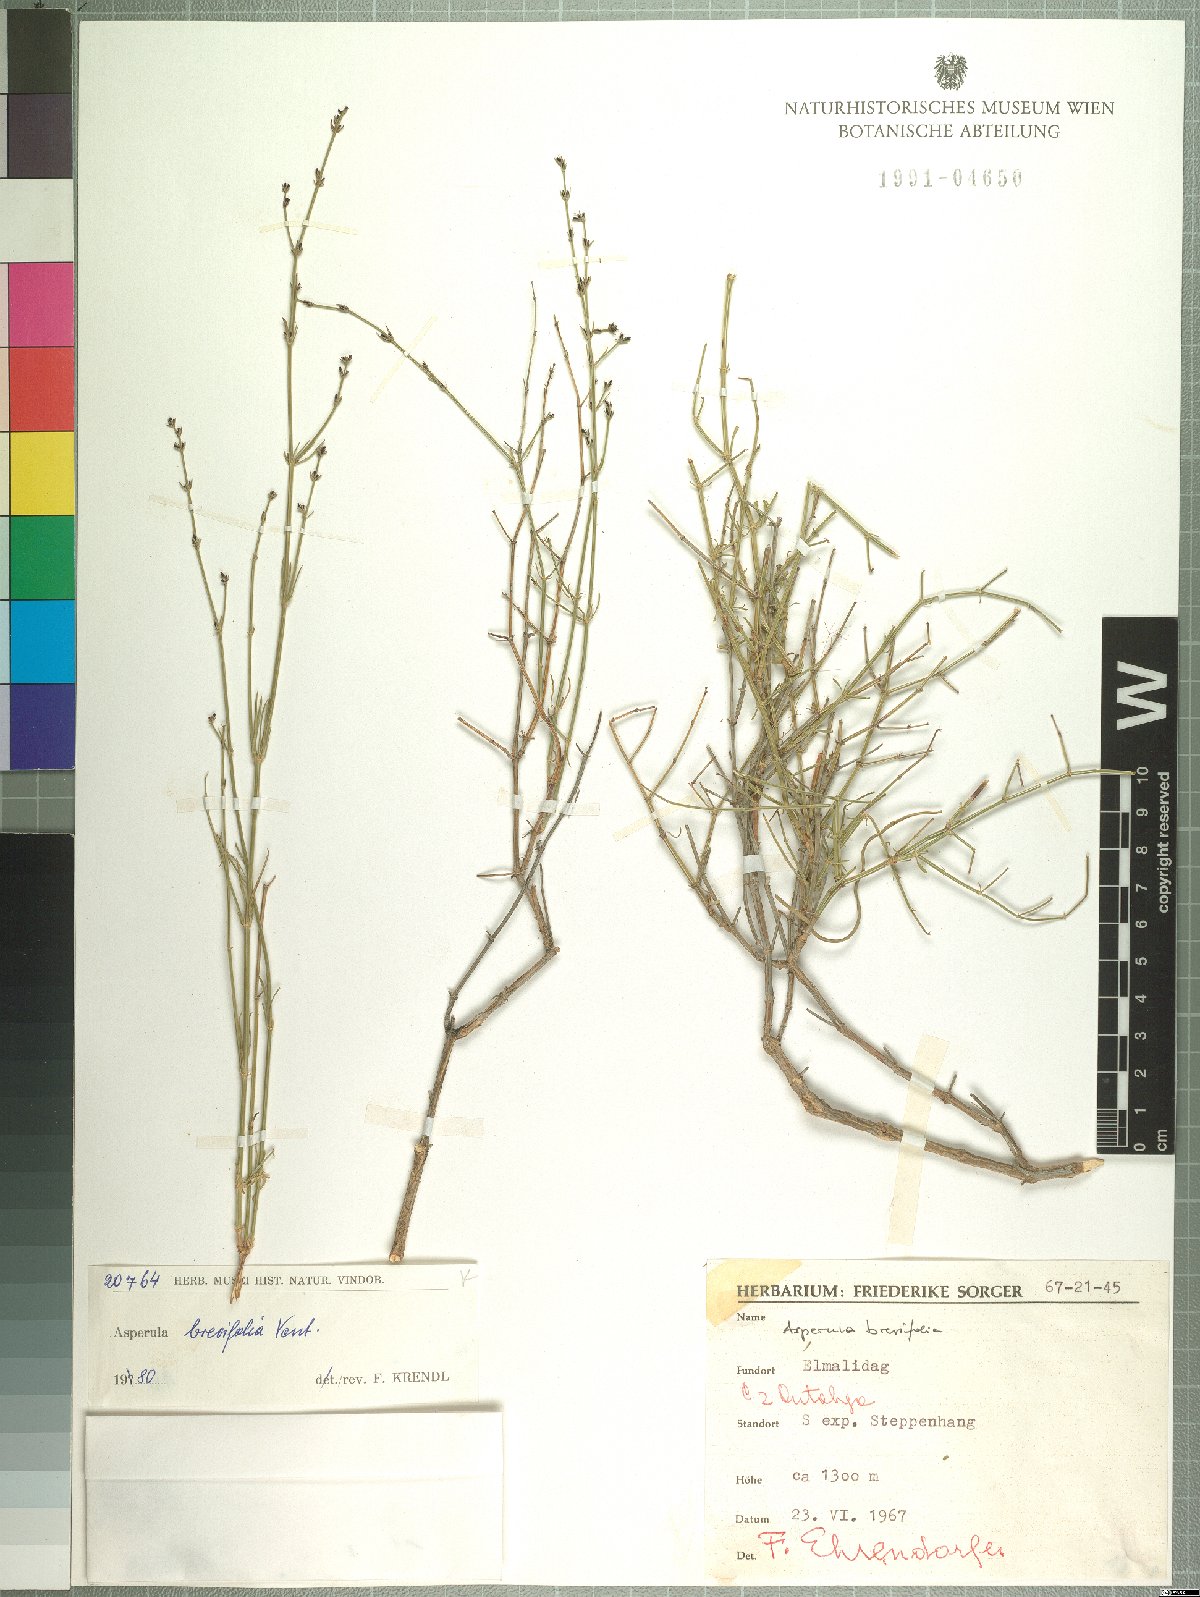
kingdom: Plantae
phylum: Tracheophyta
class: Magnoliopsida
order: Gentianales
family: Rubiaceae
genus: Thliphthisa
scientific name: Thliphthisa brevifolia
